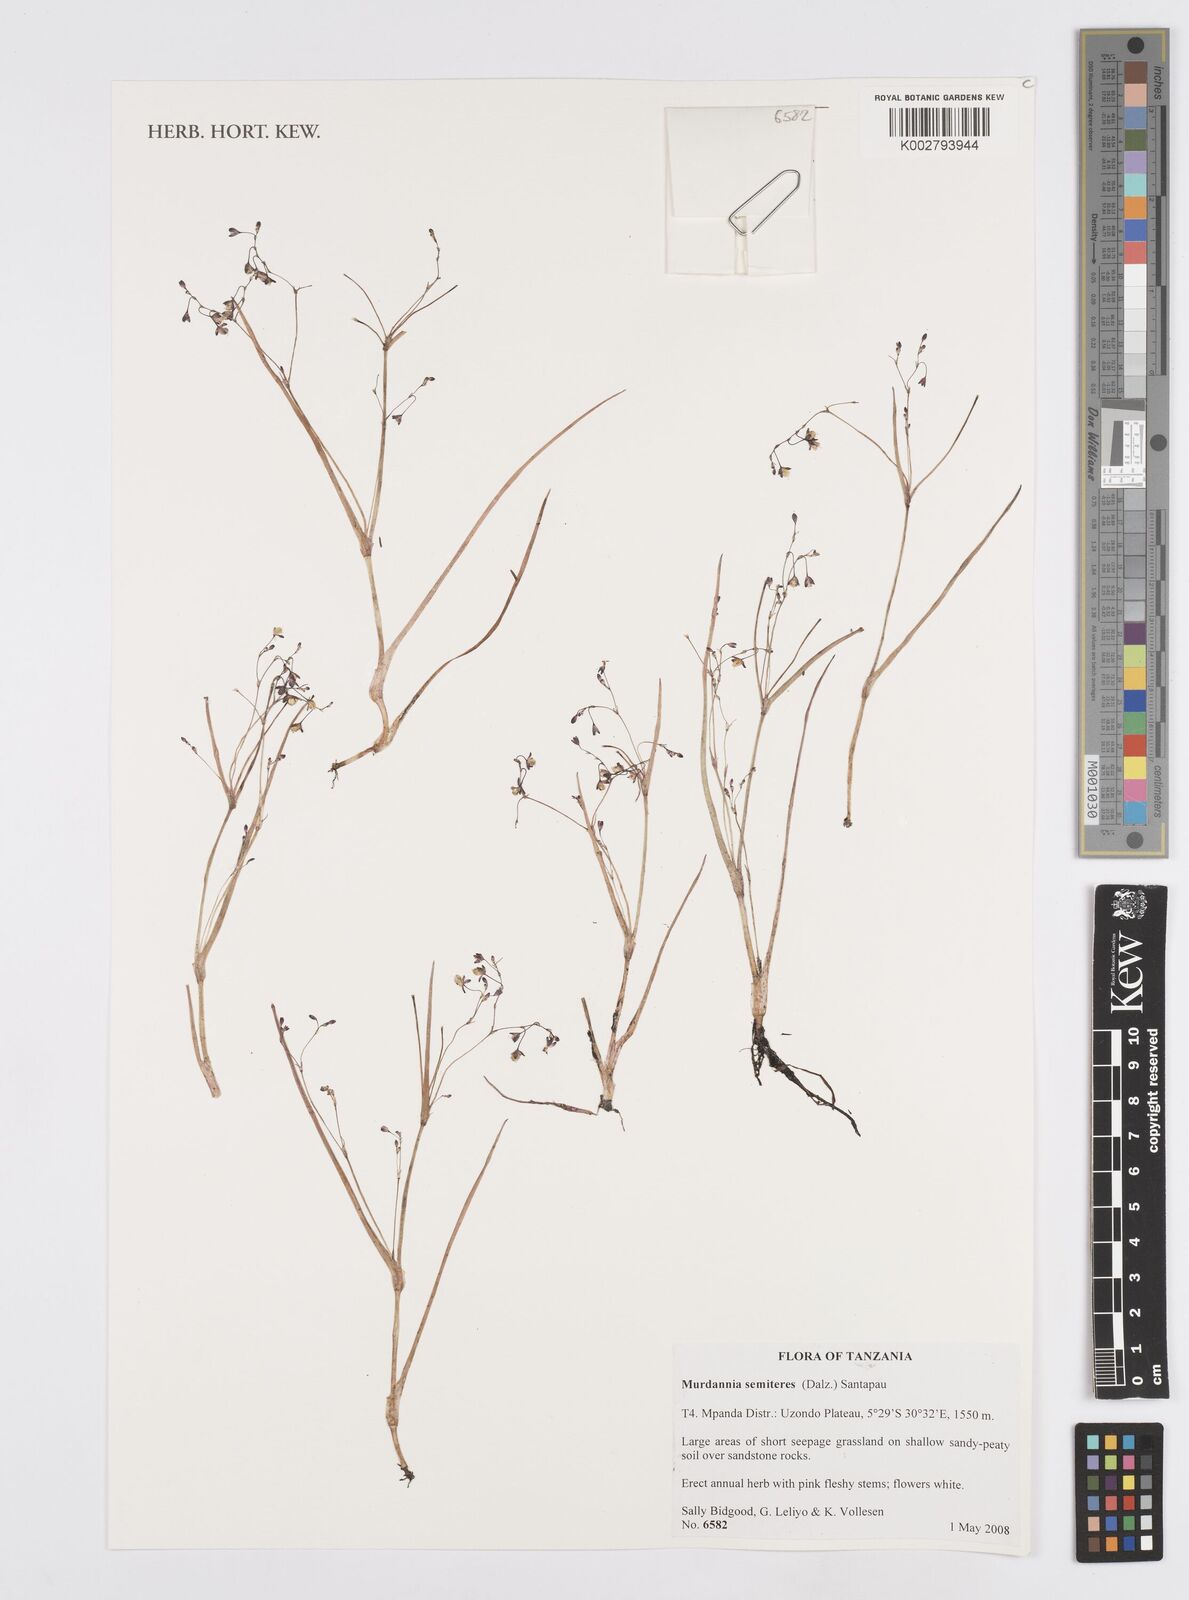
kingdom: Plantae
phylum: Tracheophyta
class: Liliopsida
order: Commelinales
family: Commelinaceae
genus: Murdannia
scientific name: Murdannia semiteres
